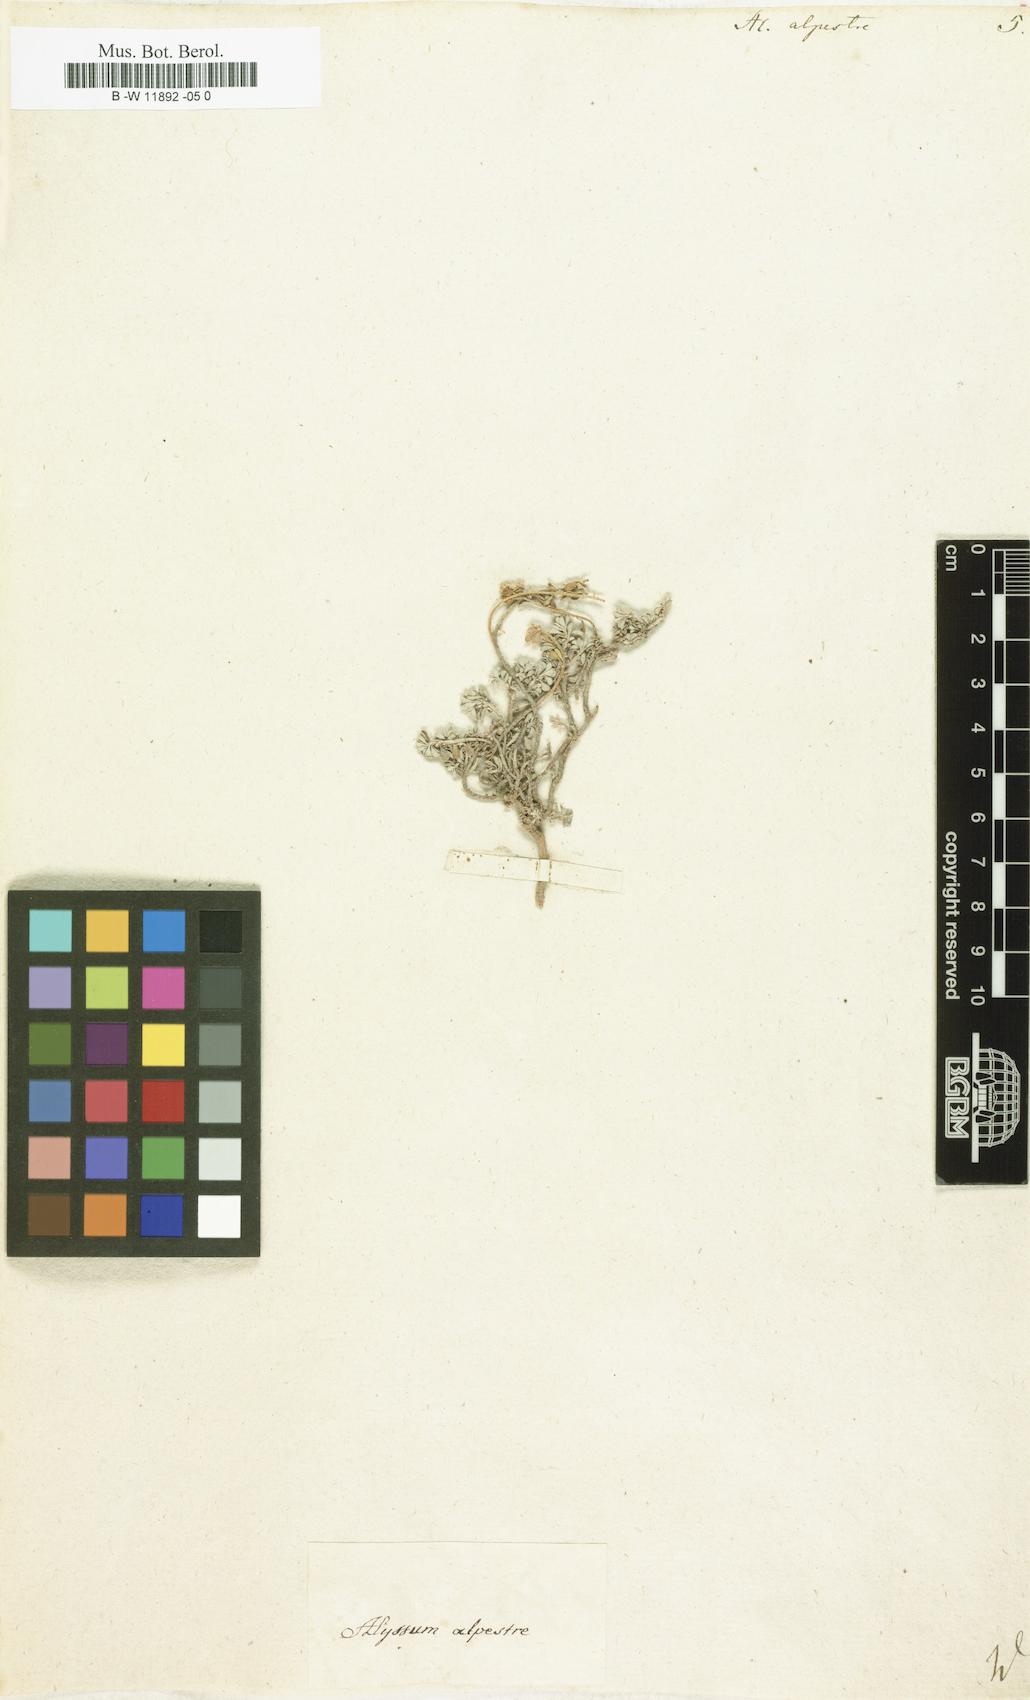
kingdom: Plantae
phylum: Tracheophyta
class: Magnoliopsida
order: Brassicales
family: Brassicaceae
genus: Odontarrhena
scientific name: Odontarrhena alpestris
